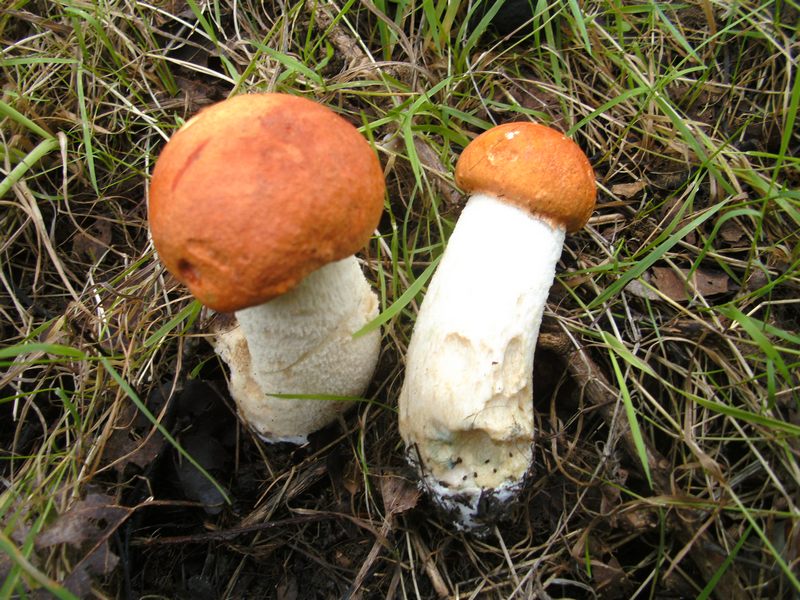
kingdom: Fungi
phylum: Basidiomycota
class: Agaricomycetes
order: Boletales
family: Boletaceae
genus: Leccinum
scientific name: Leccinum aurantiacum
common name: rustrød skælrørhat
